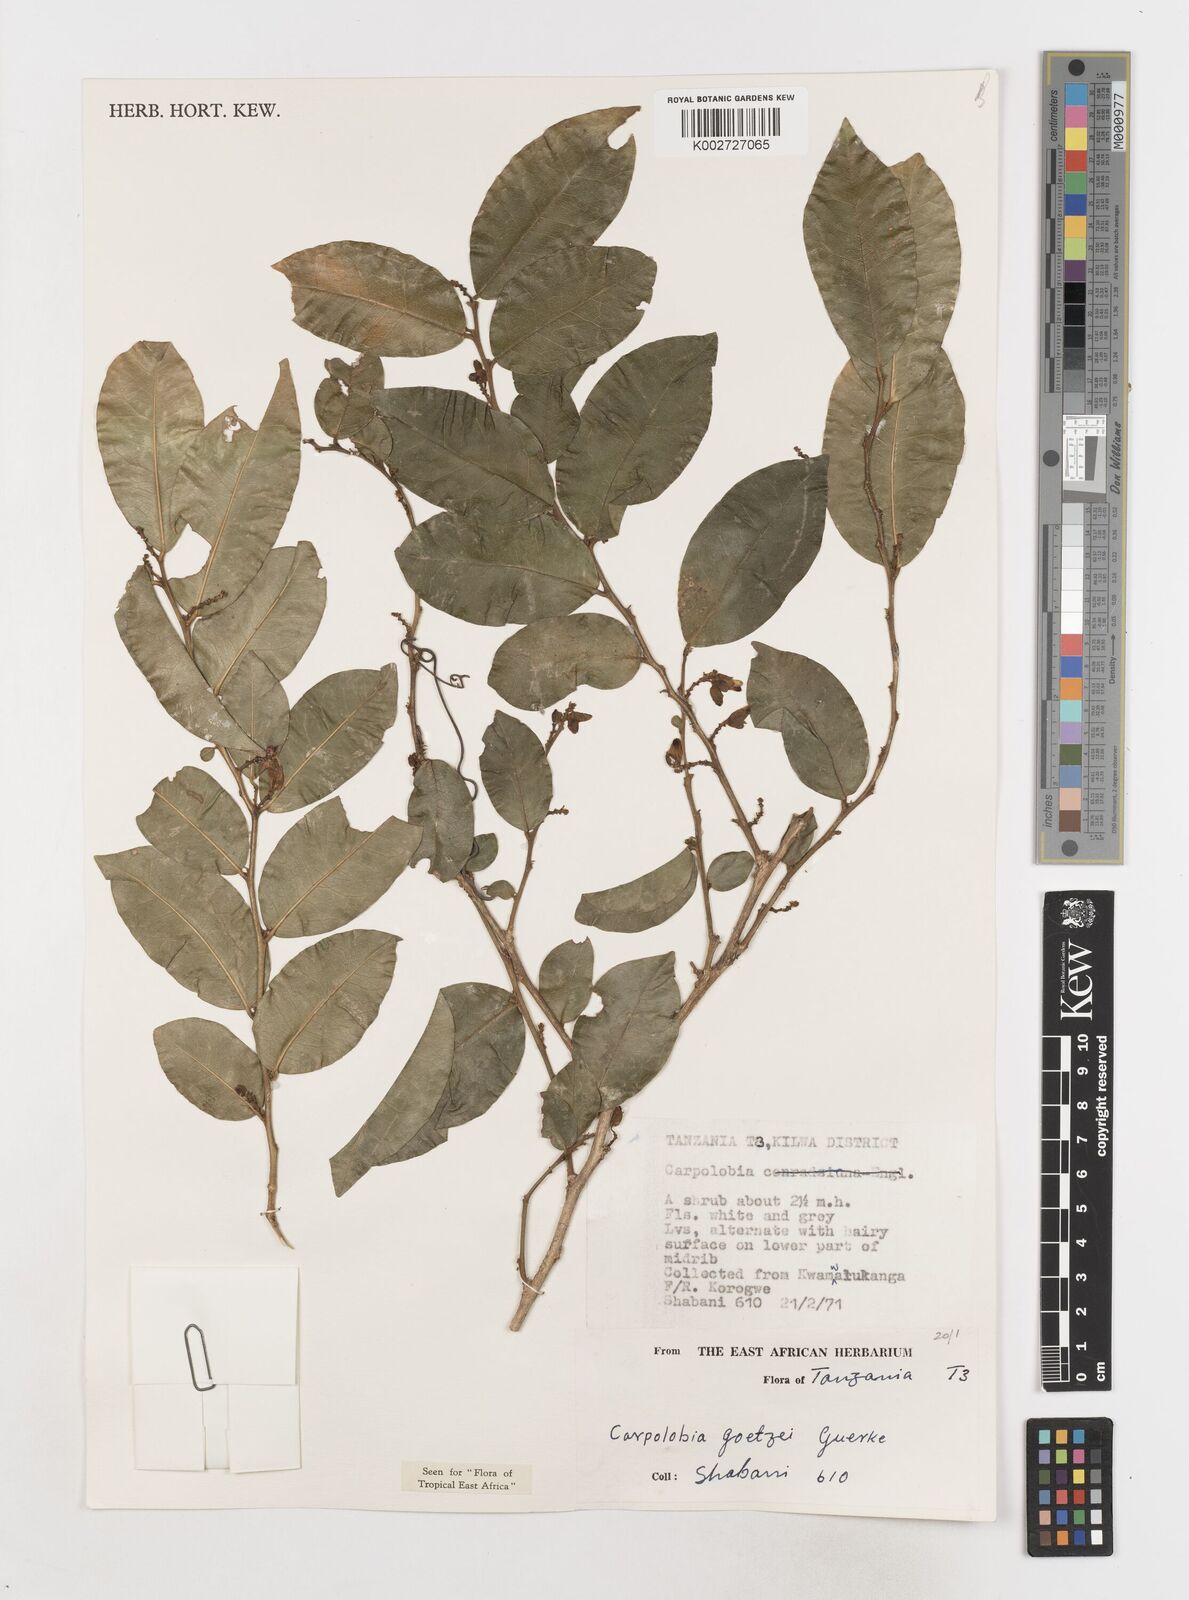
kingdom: Plantae
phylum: Tracheophyta
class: Magnoliopsida
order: Fabales
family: Polygalaceae
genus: Carpolobia
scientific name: Carpolobia goetzei
